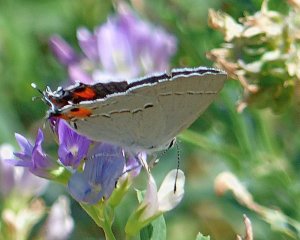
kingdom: Animalia
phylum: Arthropoda
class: Insecta
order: Lepidoptera
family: Lycaenidae
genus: Strymon
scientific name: Strymon melinus
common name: Gray Hairstreak
